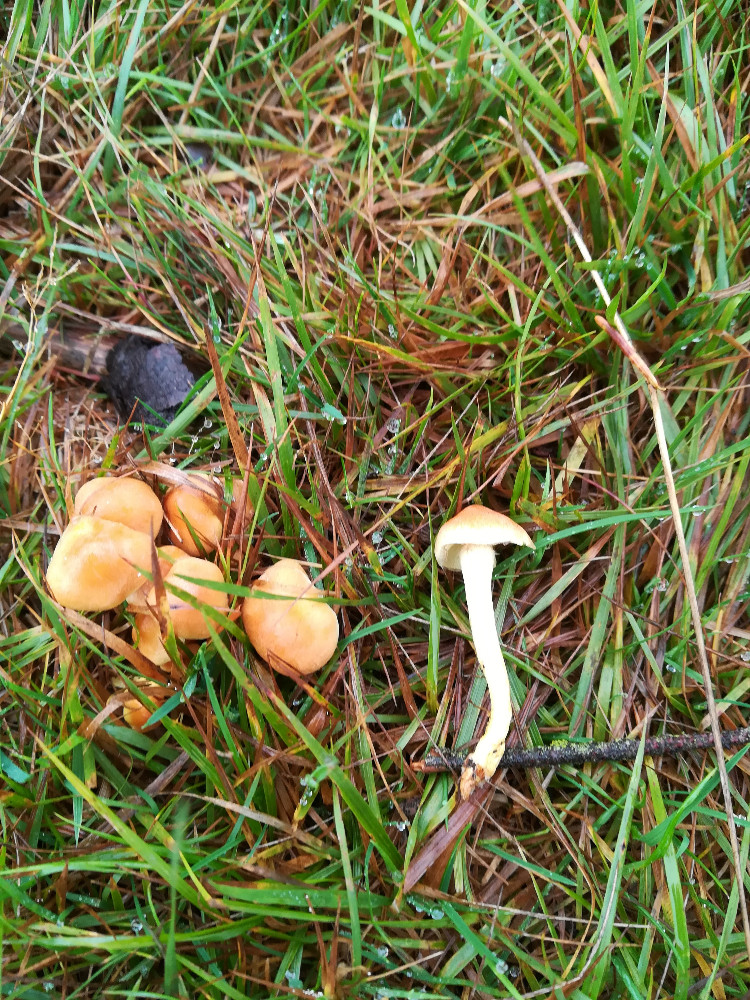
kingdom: Fungi
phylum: Basidiomycota
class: Agaricomycetes
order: Agaricales
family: Strophariaceae
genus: Hypholoma
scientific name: Hypholoma fasciculare
